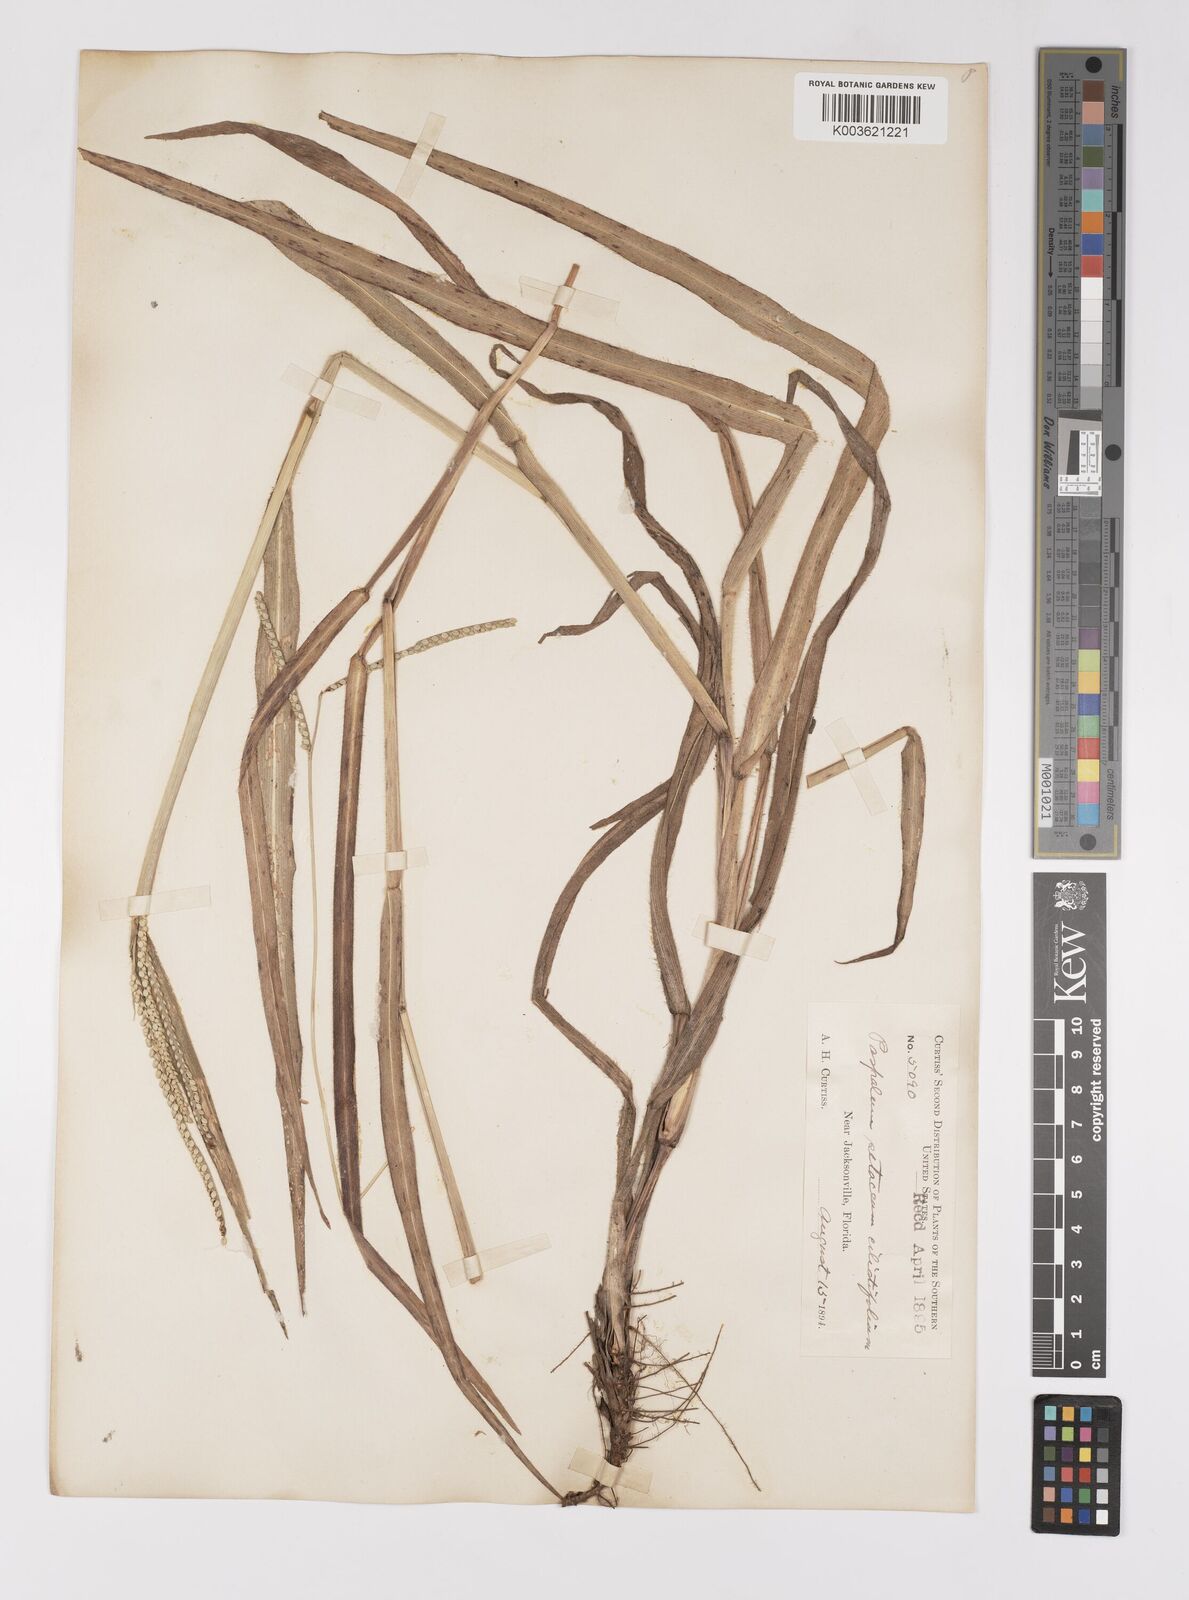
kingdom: Plantae
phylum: Tracheophyta
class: Liliopsida
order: Poales
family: Poaceae
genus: Paspalum
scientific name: Paspalum setaceum
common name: Slender paspalum
